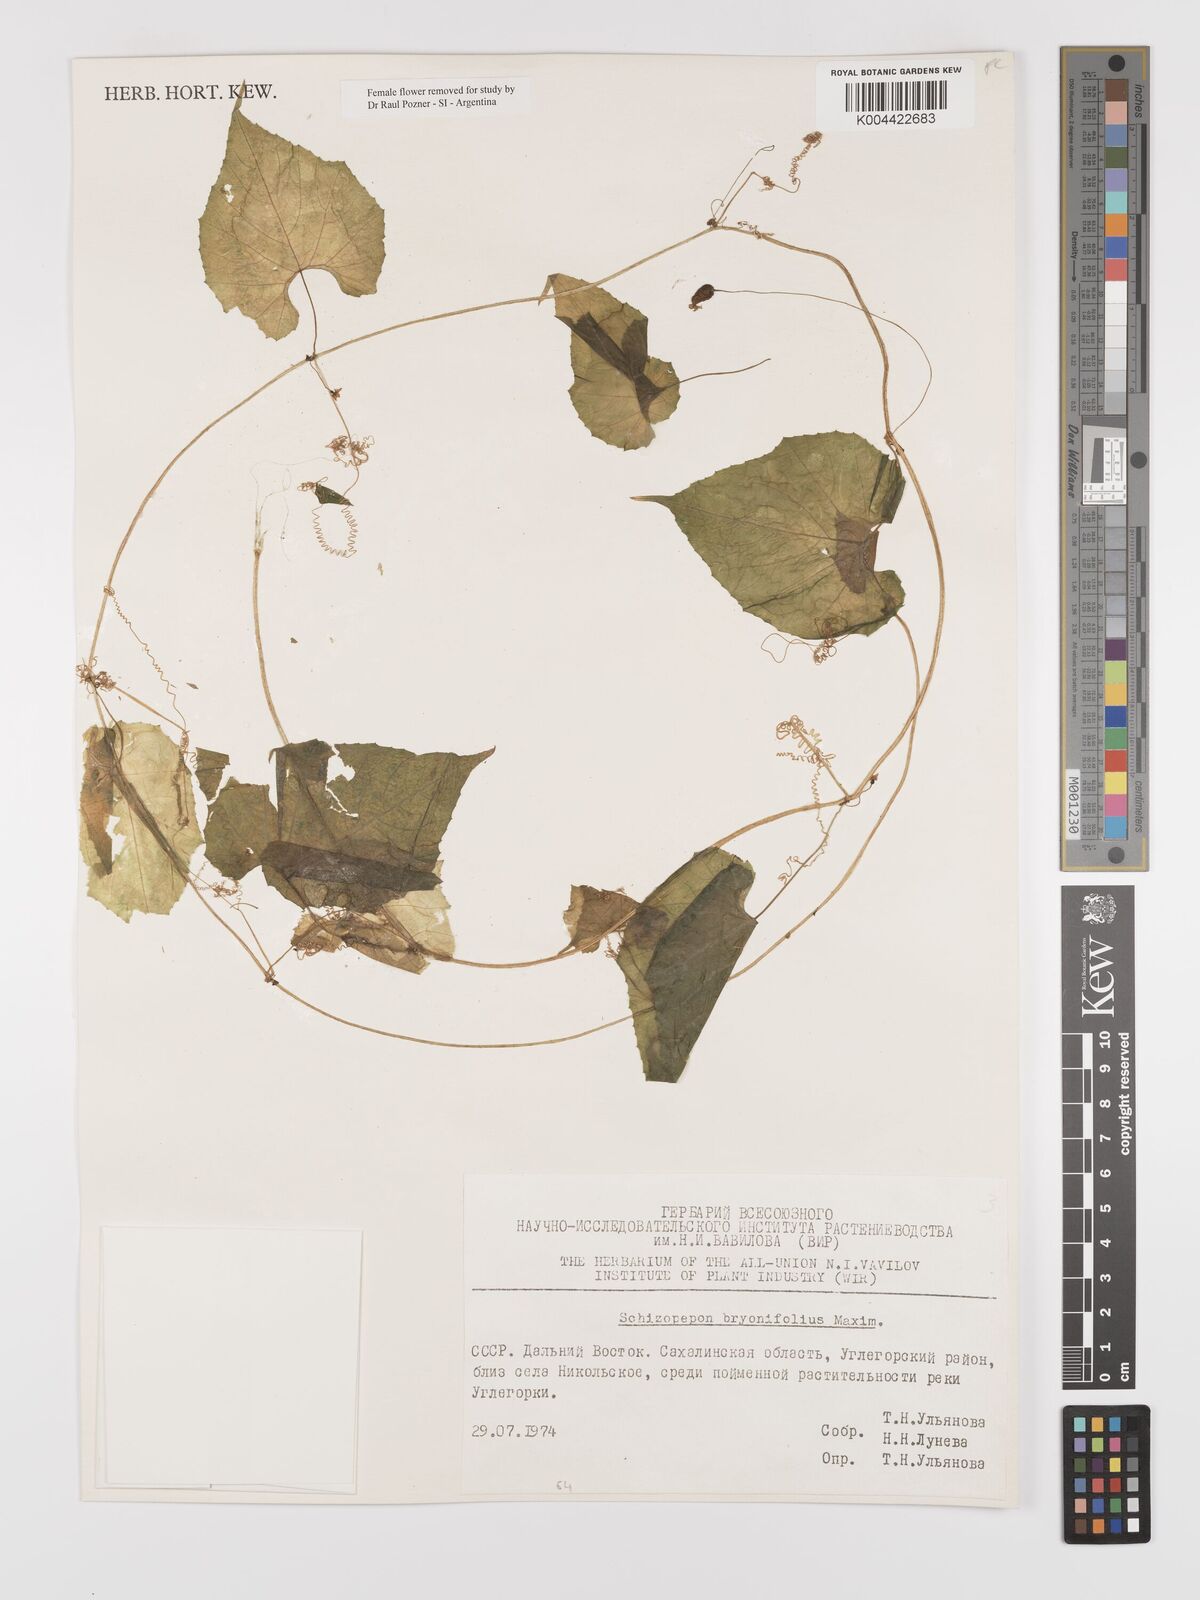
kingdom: Plantae
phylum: Tracheophyta
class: Magnoliopsida
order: Cucurbitales
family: Cucurbitaceae
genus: Schizopepon
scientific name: Schizopepon bryoniifolius
